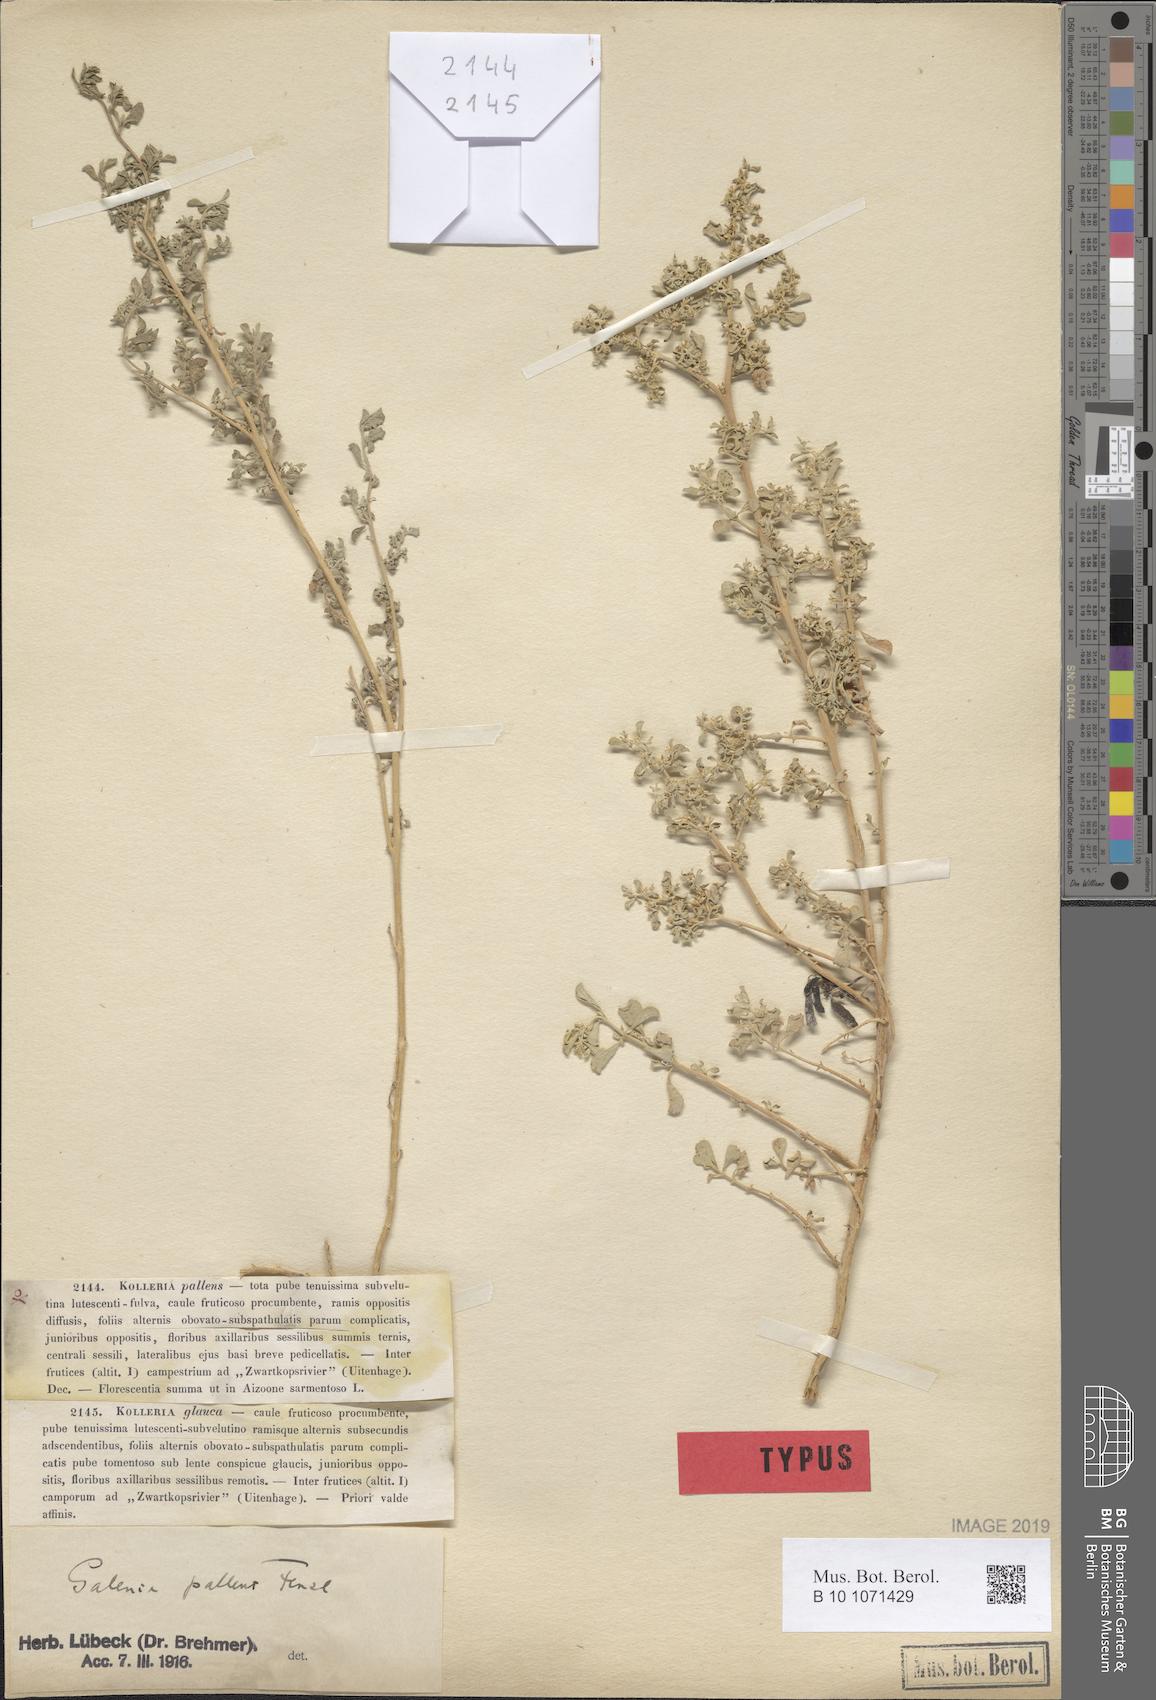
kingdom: Plantae
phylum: Tracheophyta
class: Magnoliopsida
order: Caryophyllales
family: Aizoaceae
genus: Aizoon
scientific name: Aizoon pallens
